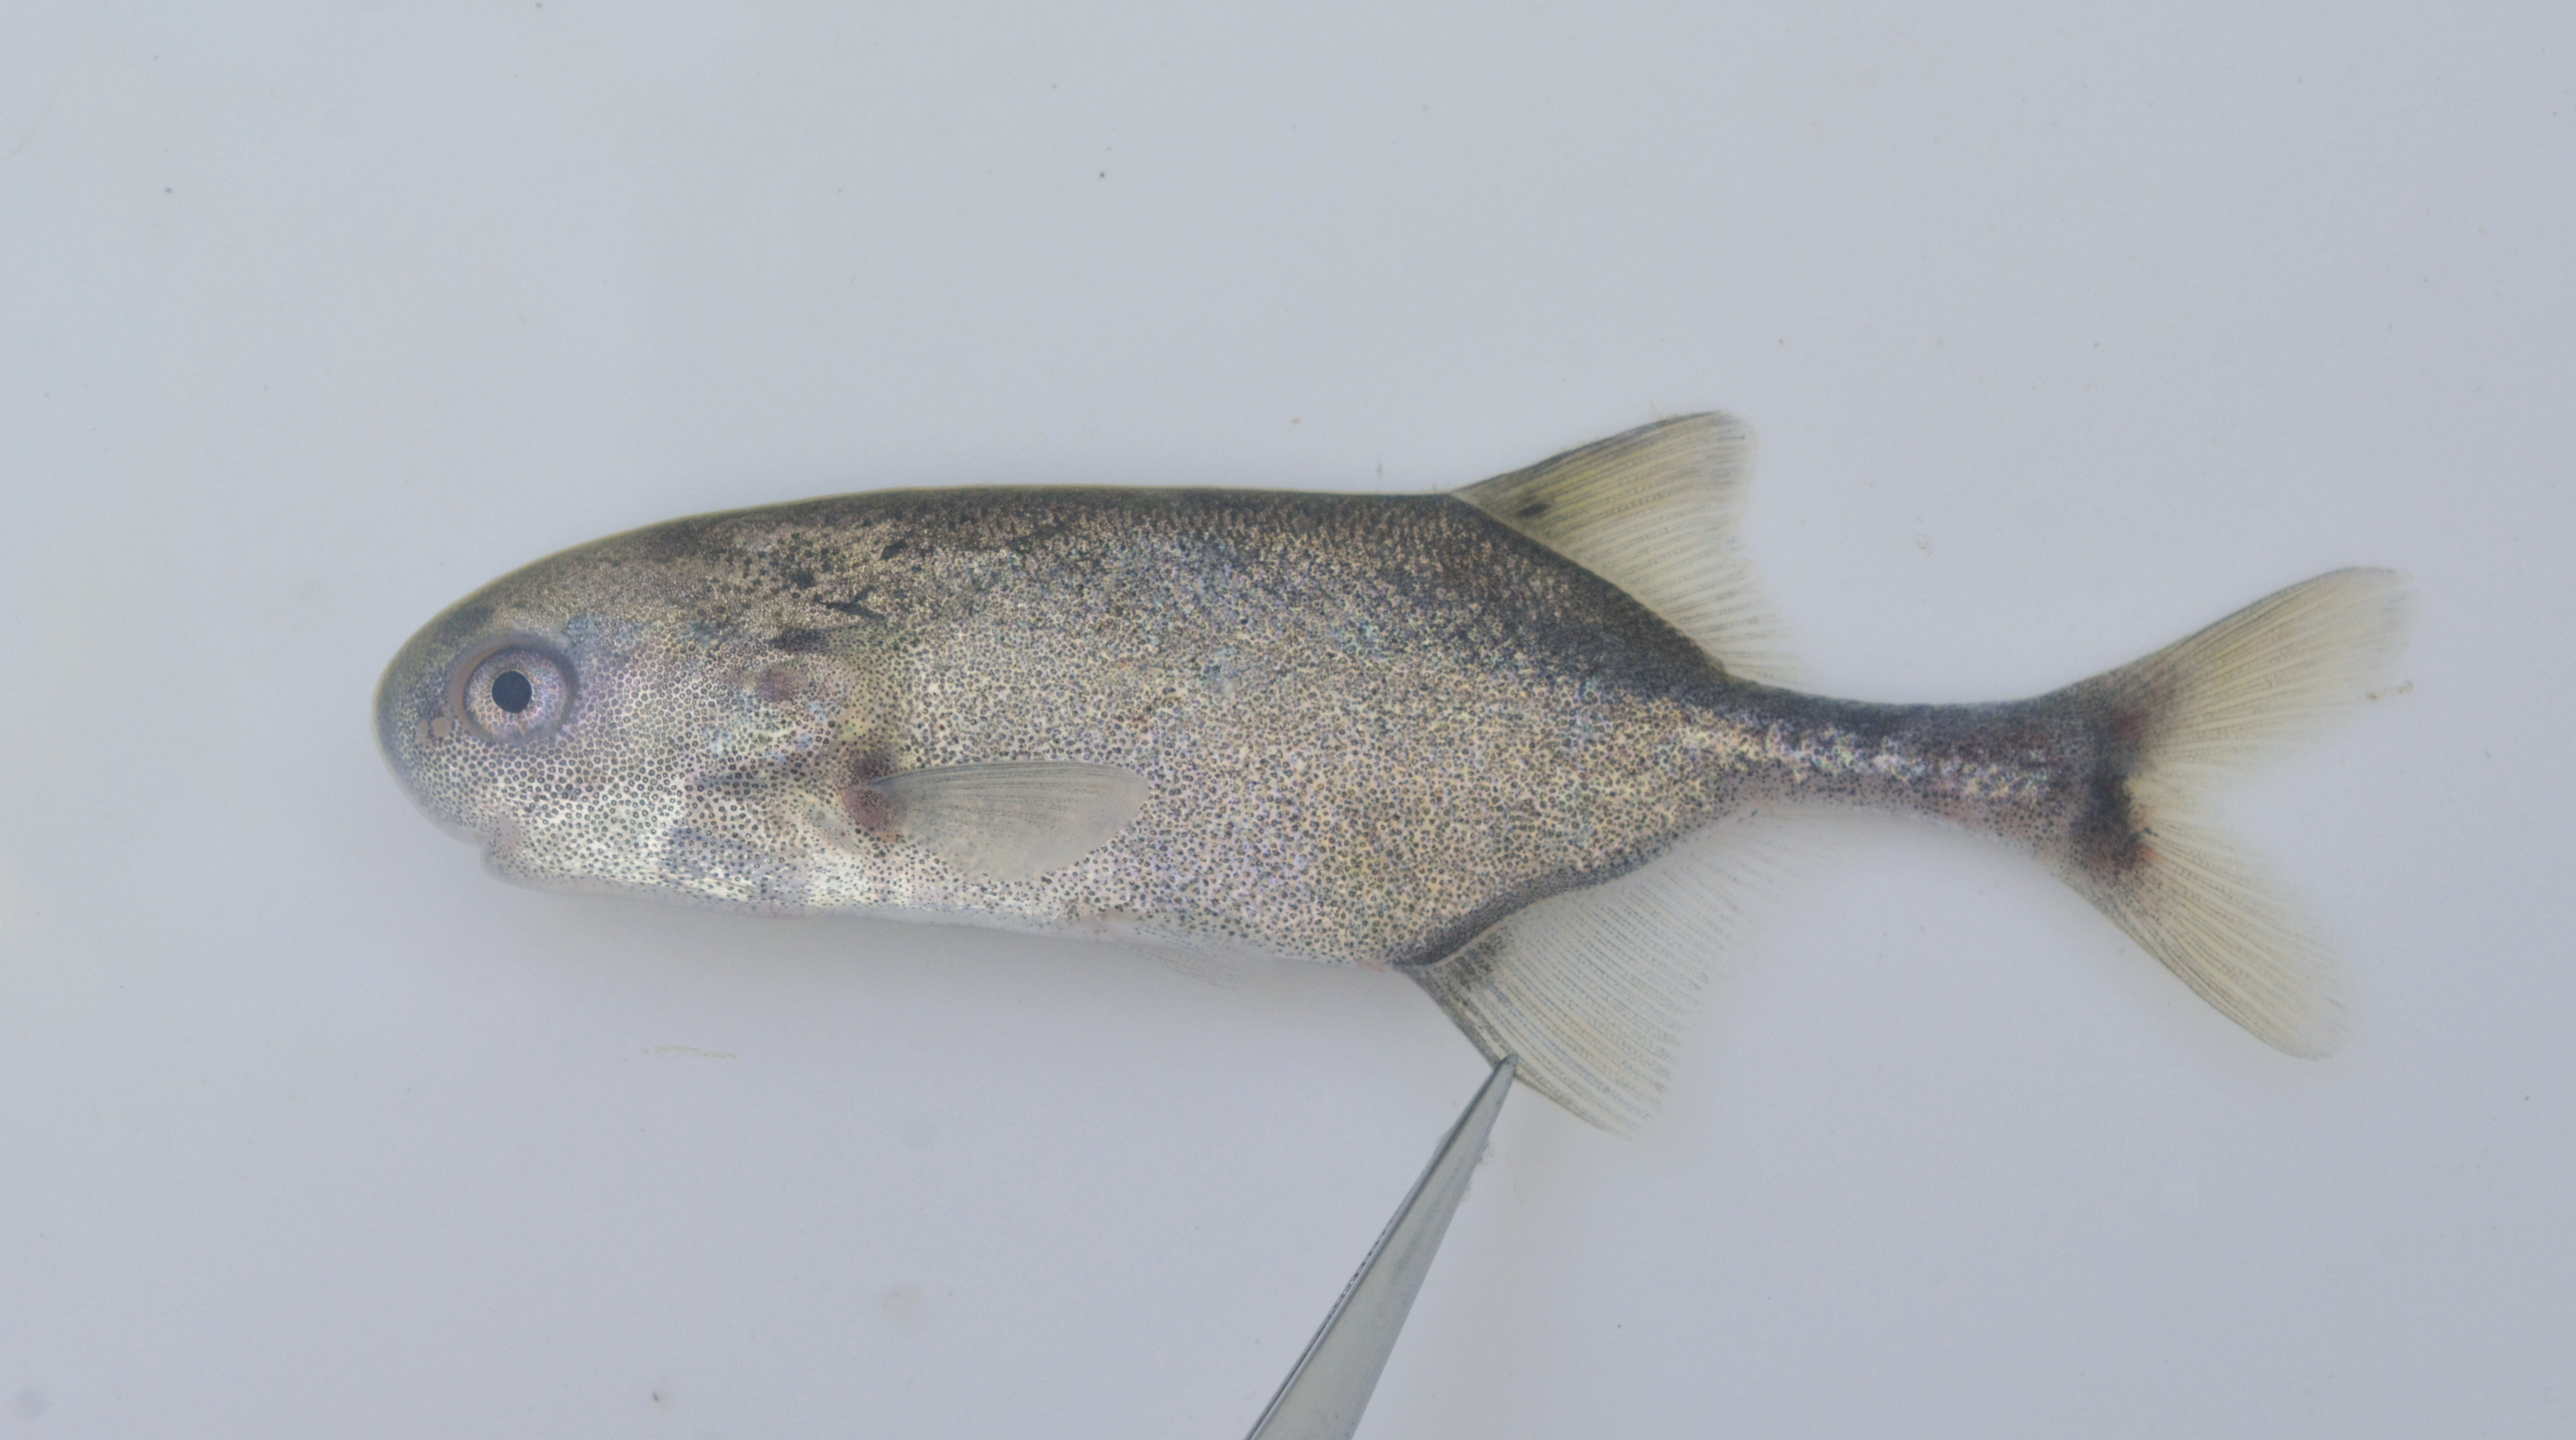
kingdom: Animalia
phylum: Chordata
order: Osteoglossiformes
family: Mormyridae
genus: Petrocephalus
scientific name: Petrocephalus okavangensis
